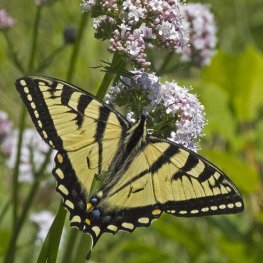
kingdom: Animalia
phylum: Arthropoda
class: Insecta
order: Lepidoptera
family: Papilionidae
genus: Pterourus
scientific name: Pterourus canadensis
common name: Canadian Tiger Swallowtail
